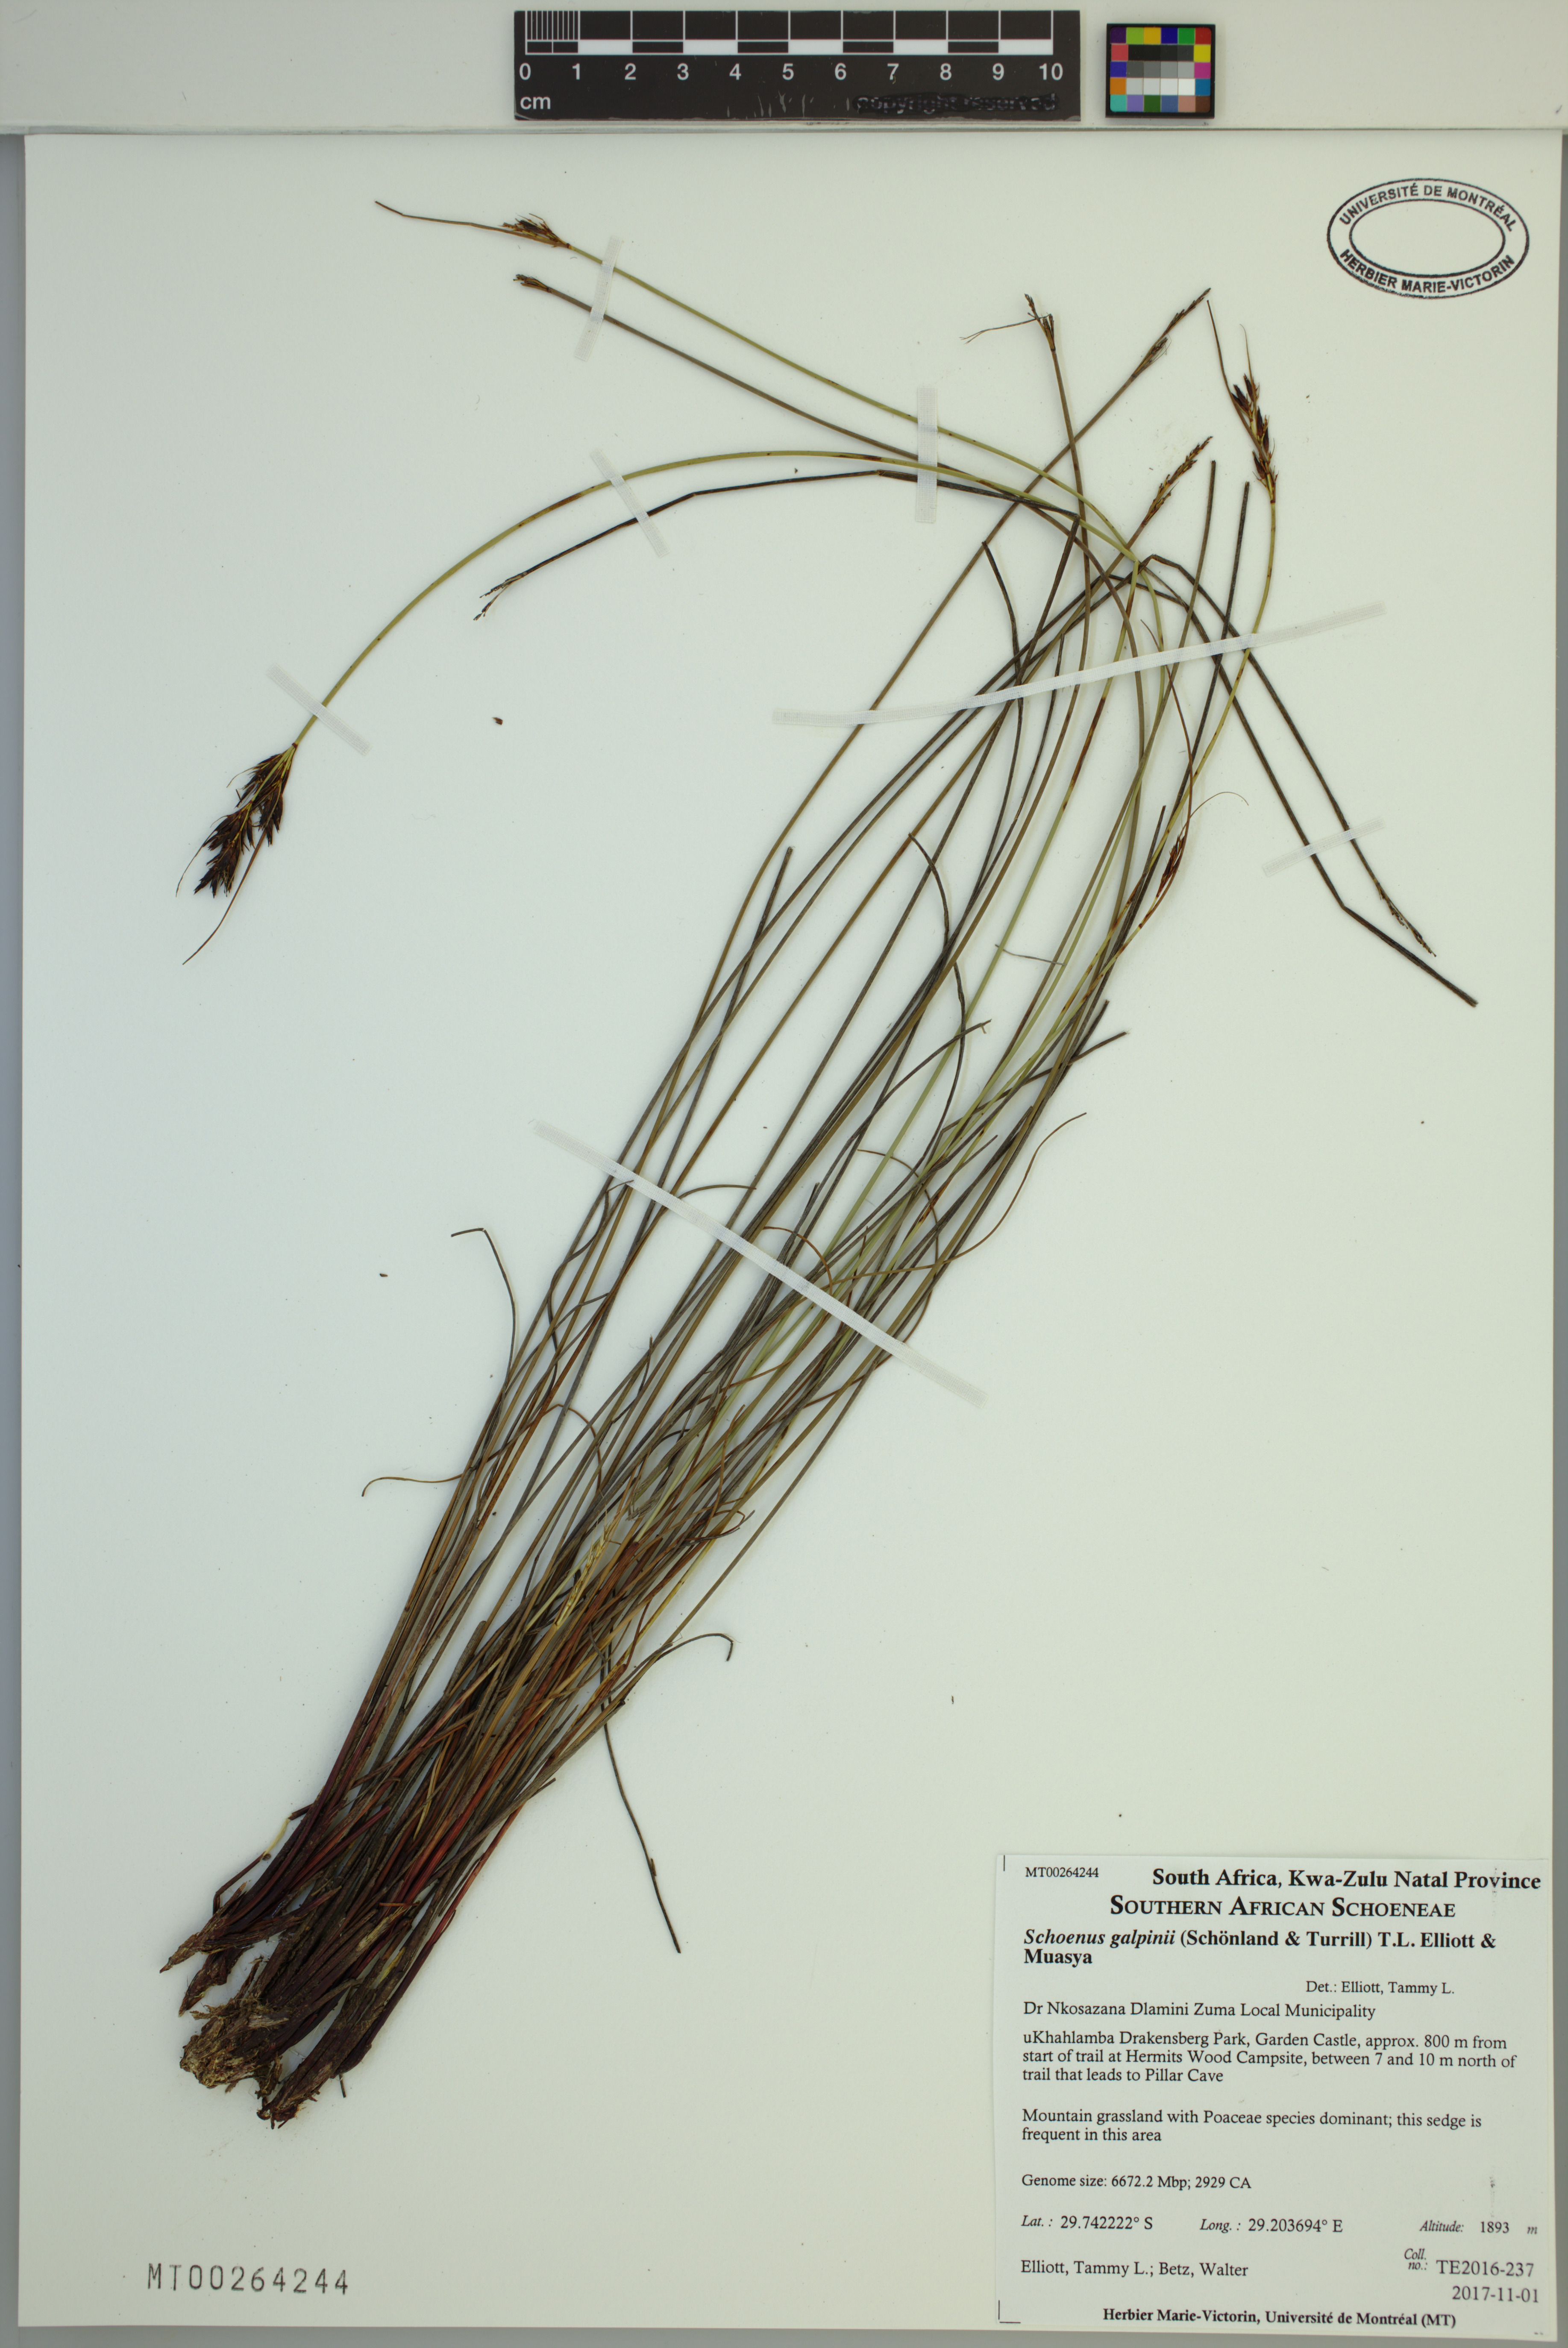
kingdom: Plantae
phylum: Tracheophyta
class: Liliopsida
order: Poales
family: Cyperaceae
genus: Schoenus
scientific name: Schoenus galpinii
